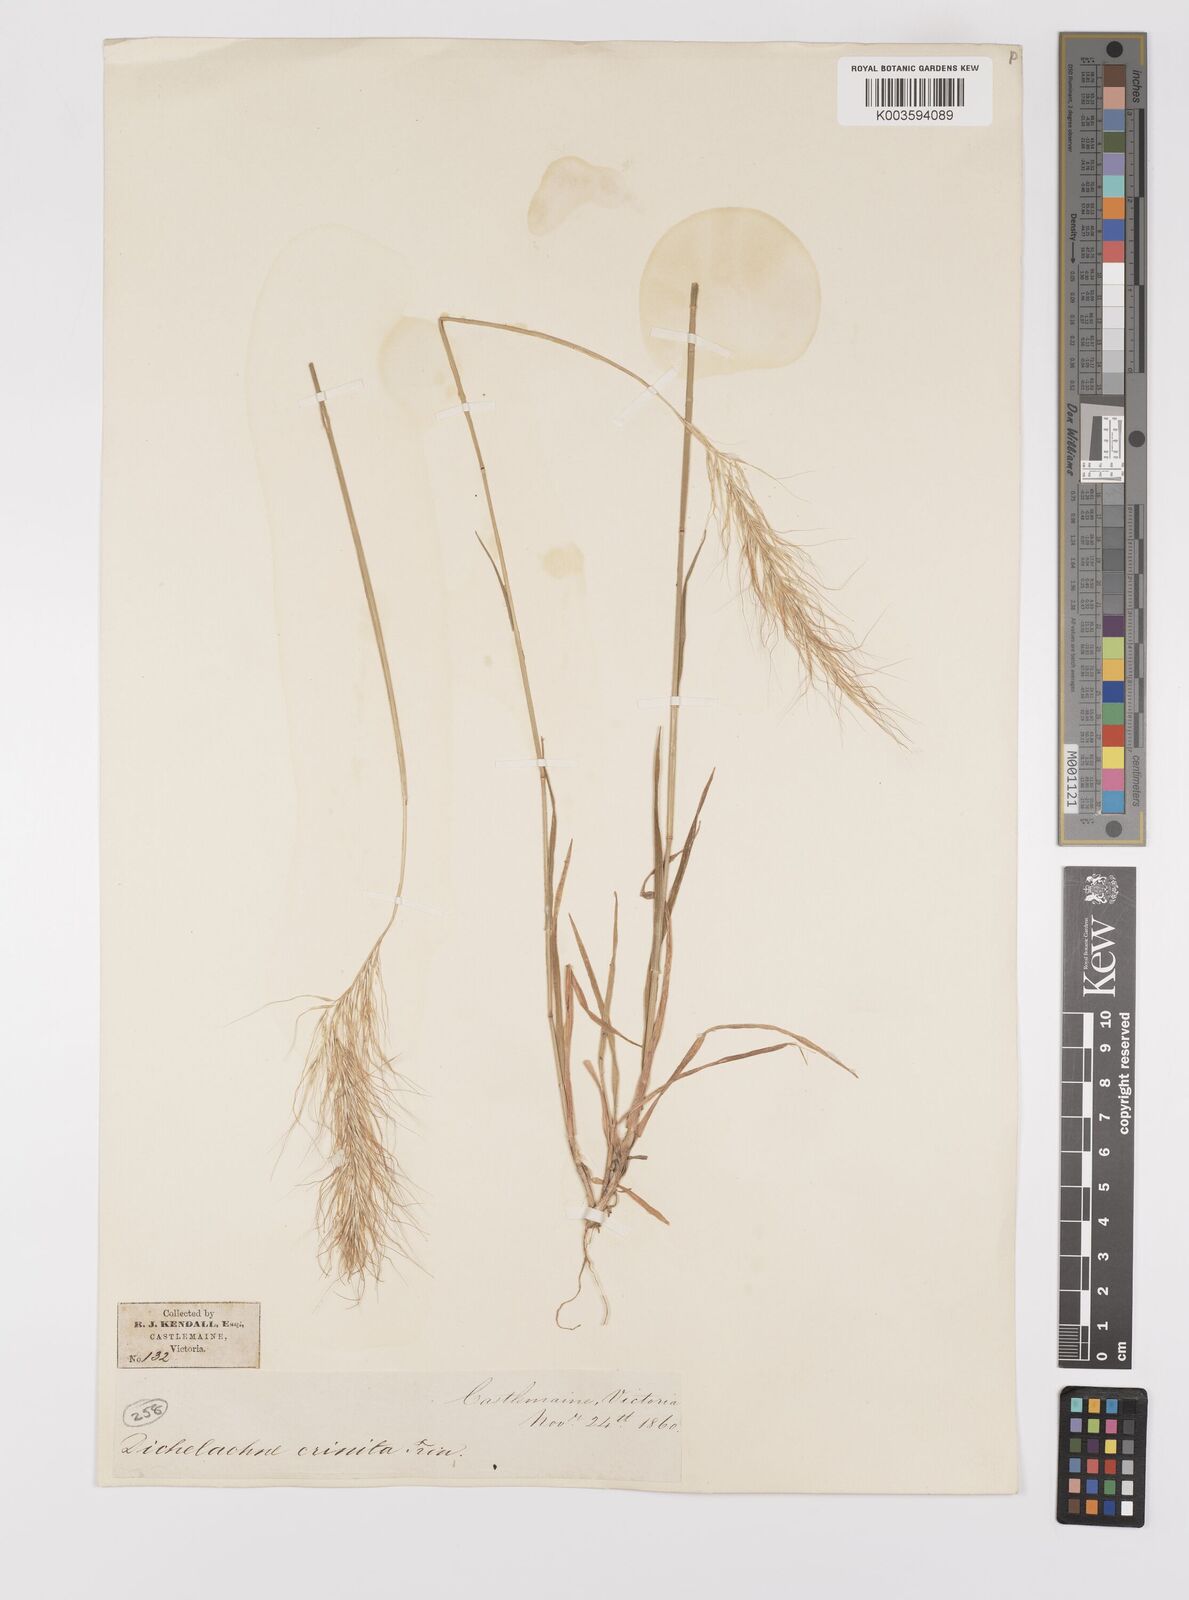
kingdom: Plantae
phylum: Tracheophyta
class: Liliopsida
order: Poales
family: Poaceae
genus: Dichelachne
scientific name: Dichelachne rara
